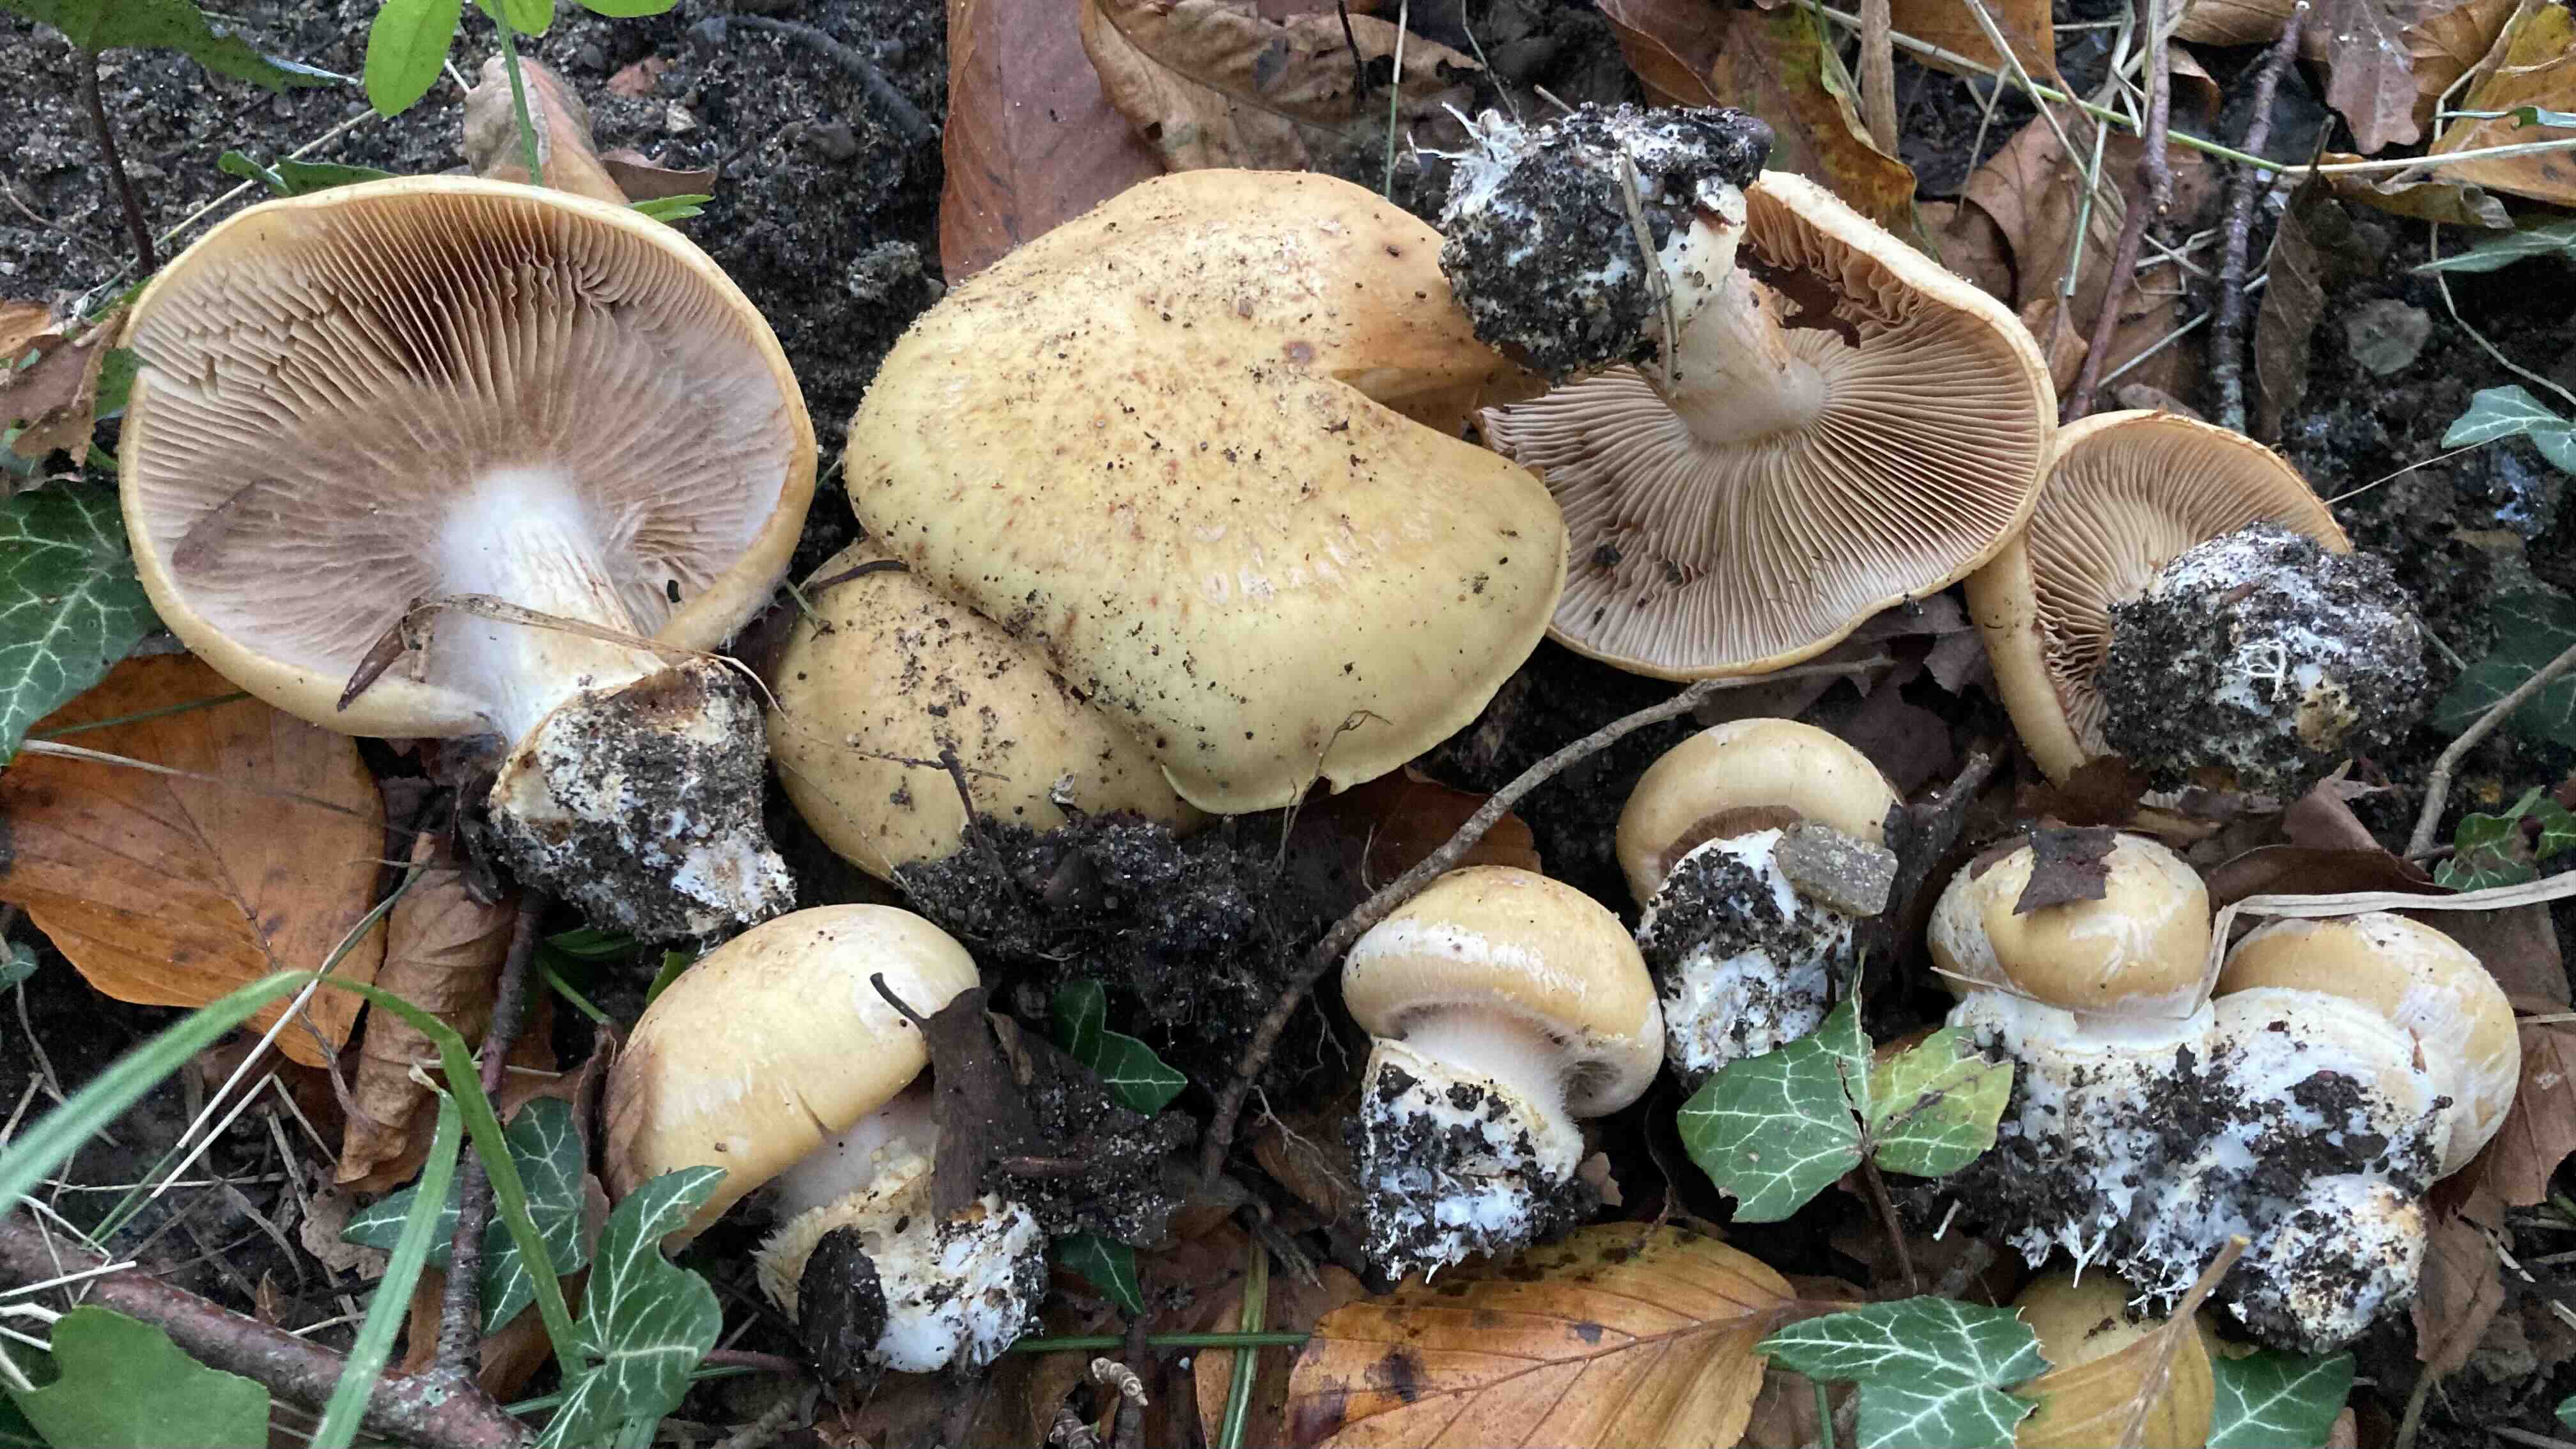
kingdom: Fungi
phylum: Basidiomycota
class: Agaricomycetes
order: Agaricales
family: Cortinariaceae
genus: Phlegmacium
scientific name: Phlegmacium aquilanum
